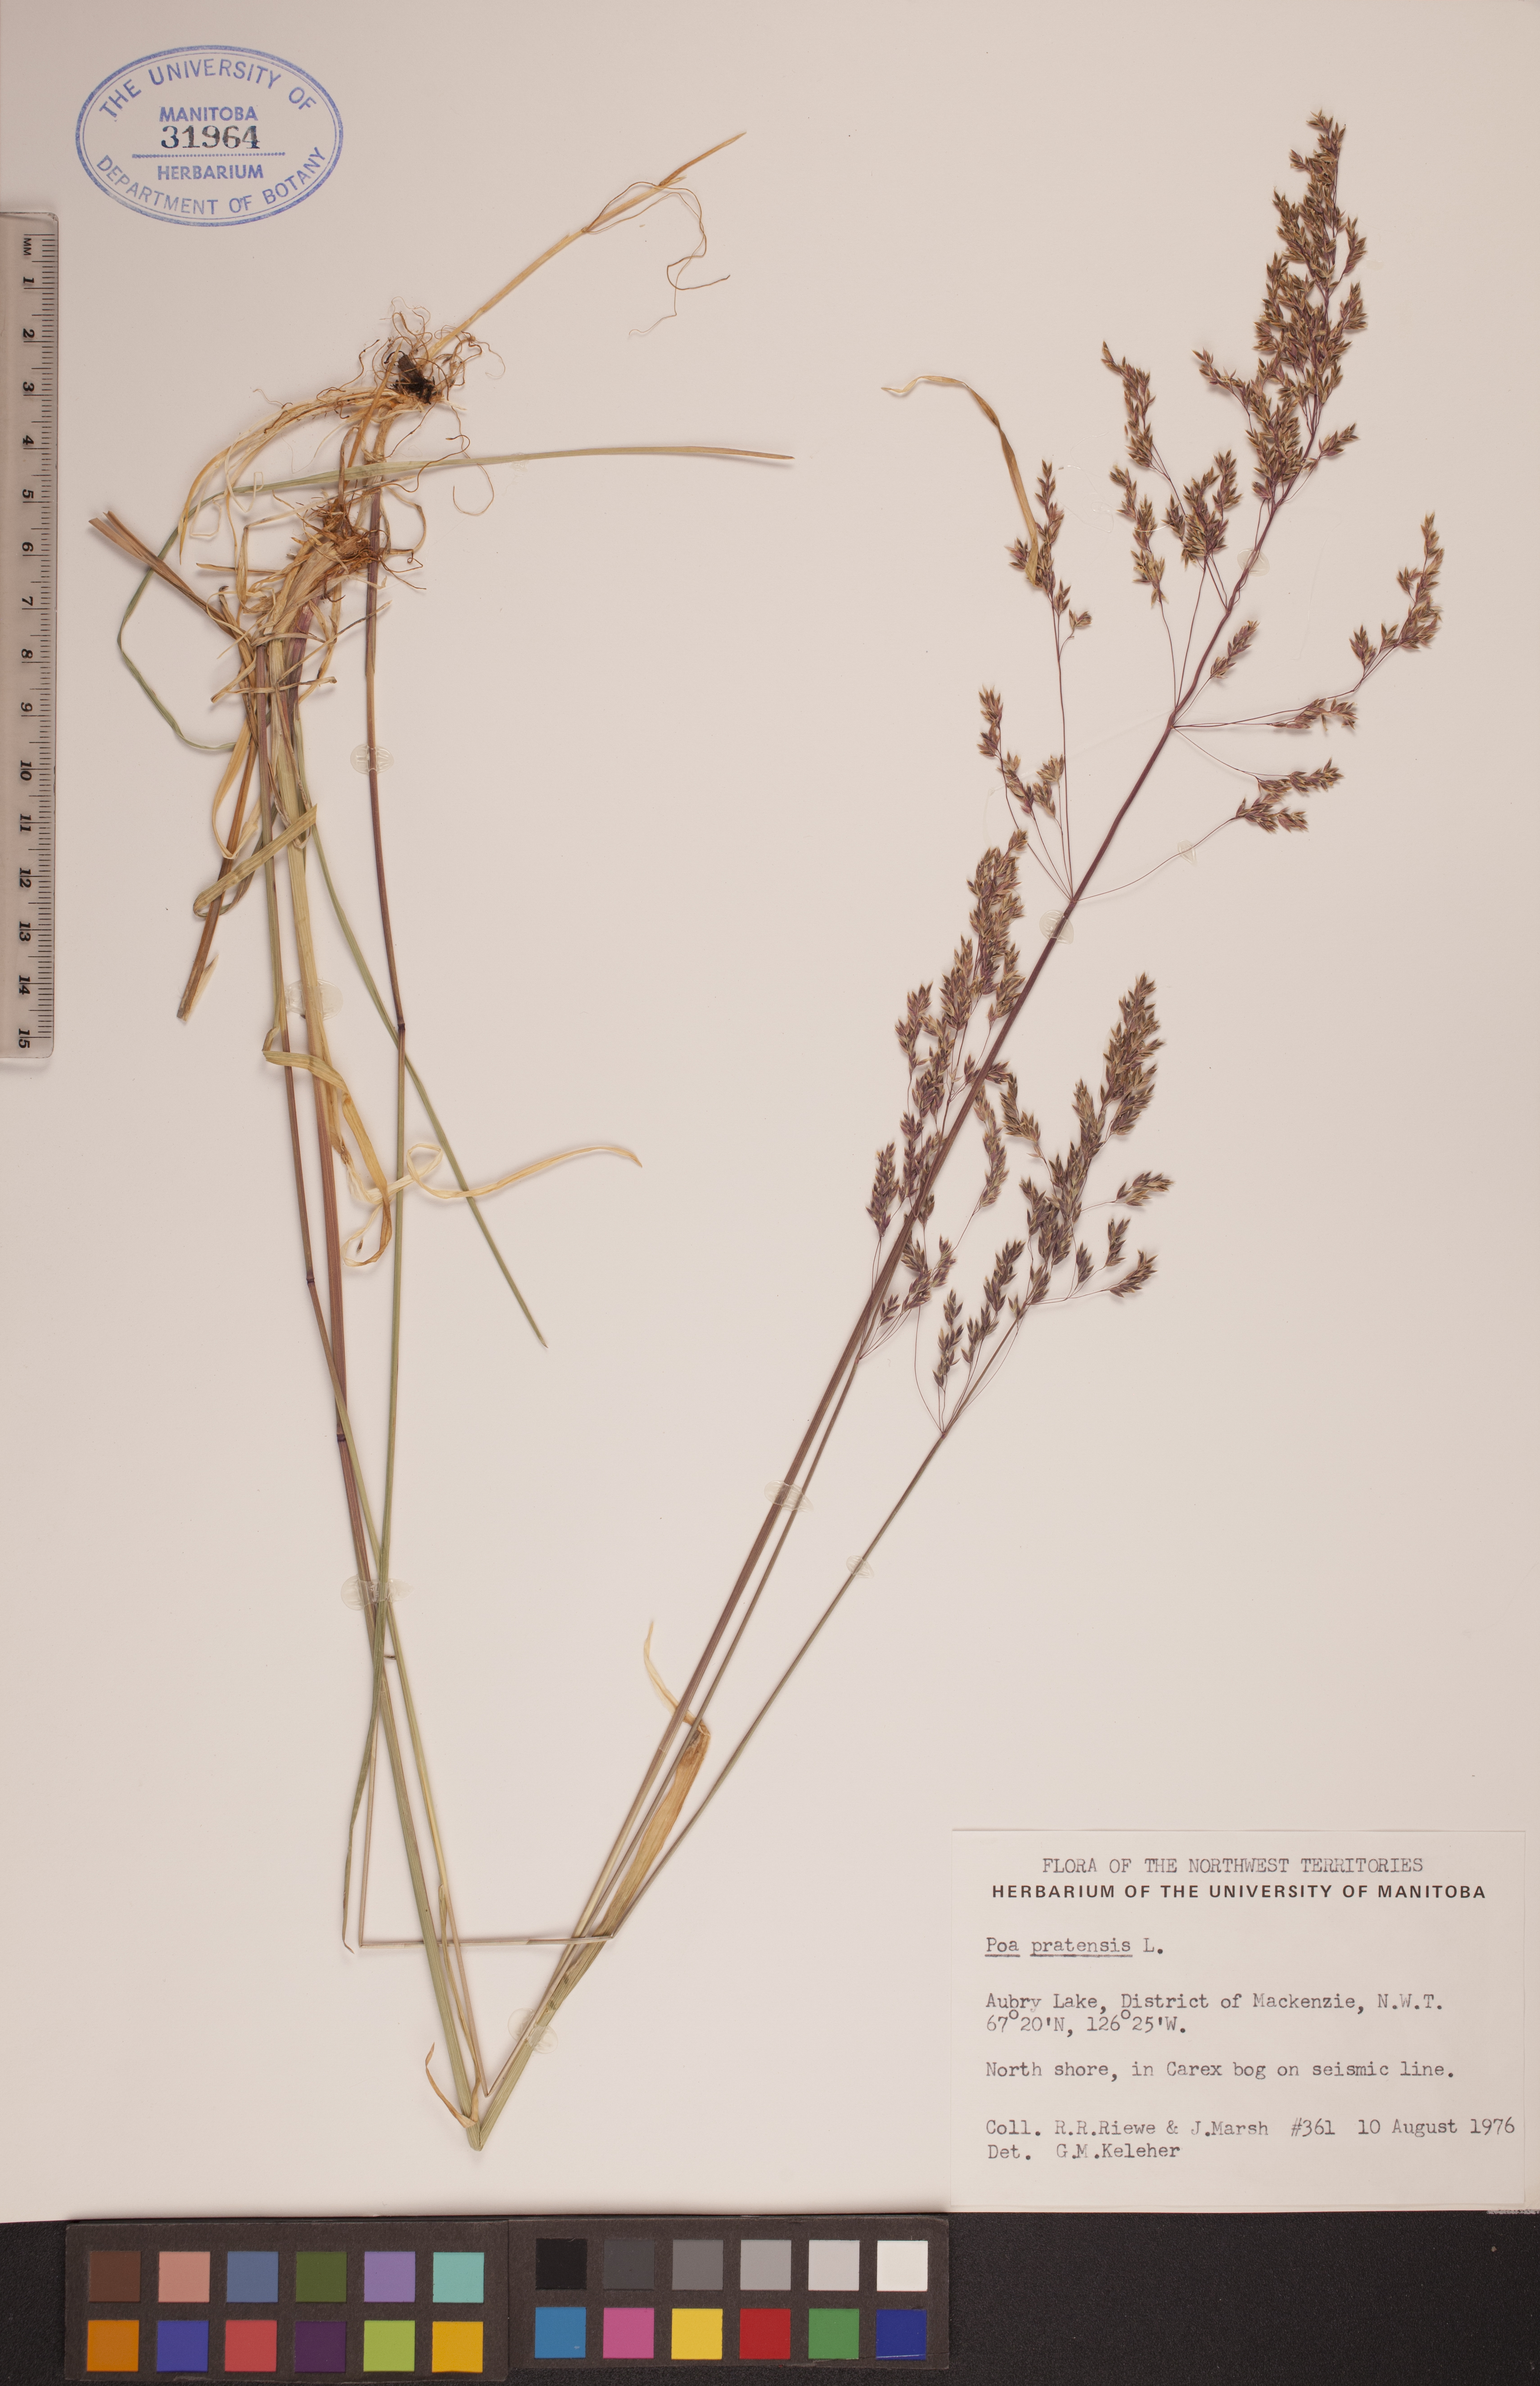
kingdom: Plantae
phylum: Tracheophyta
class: Liliopsida
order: Poales
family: Poaceae
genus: Poa
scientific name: Poa pratensis
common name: Kentucky bluegrass
